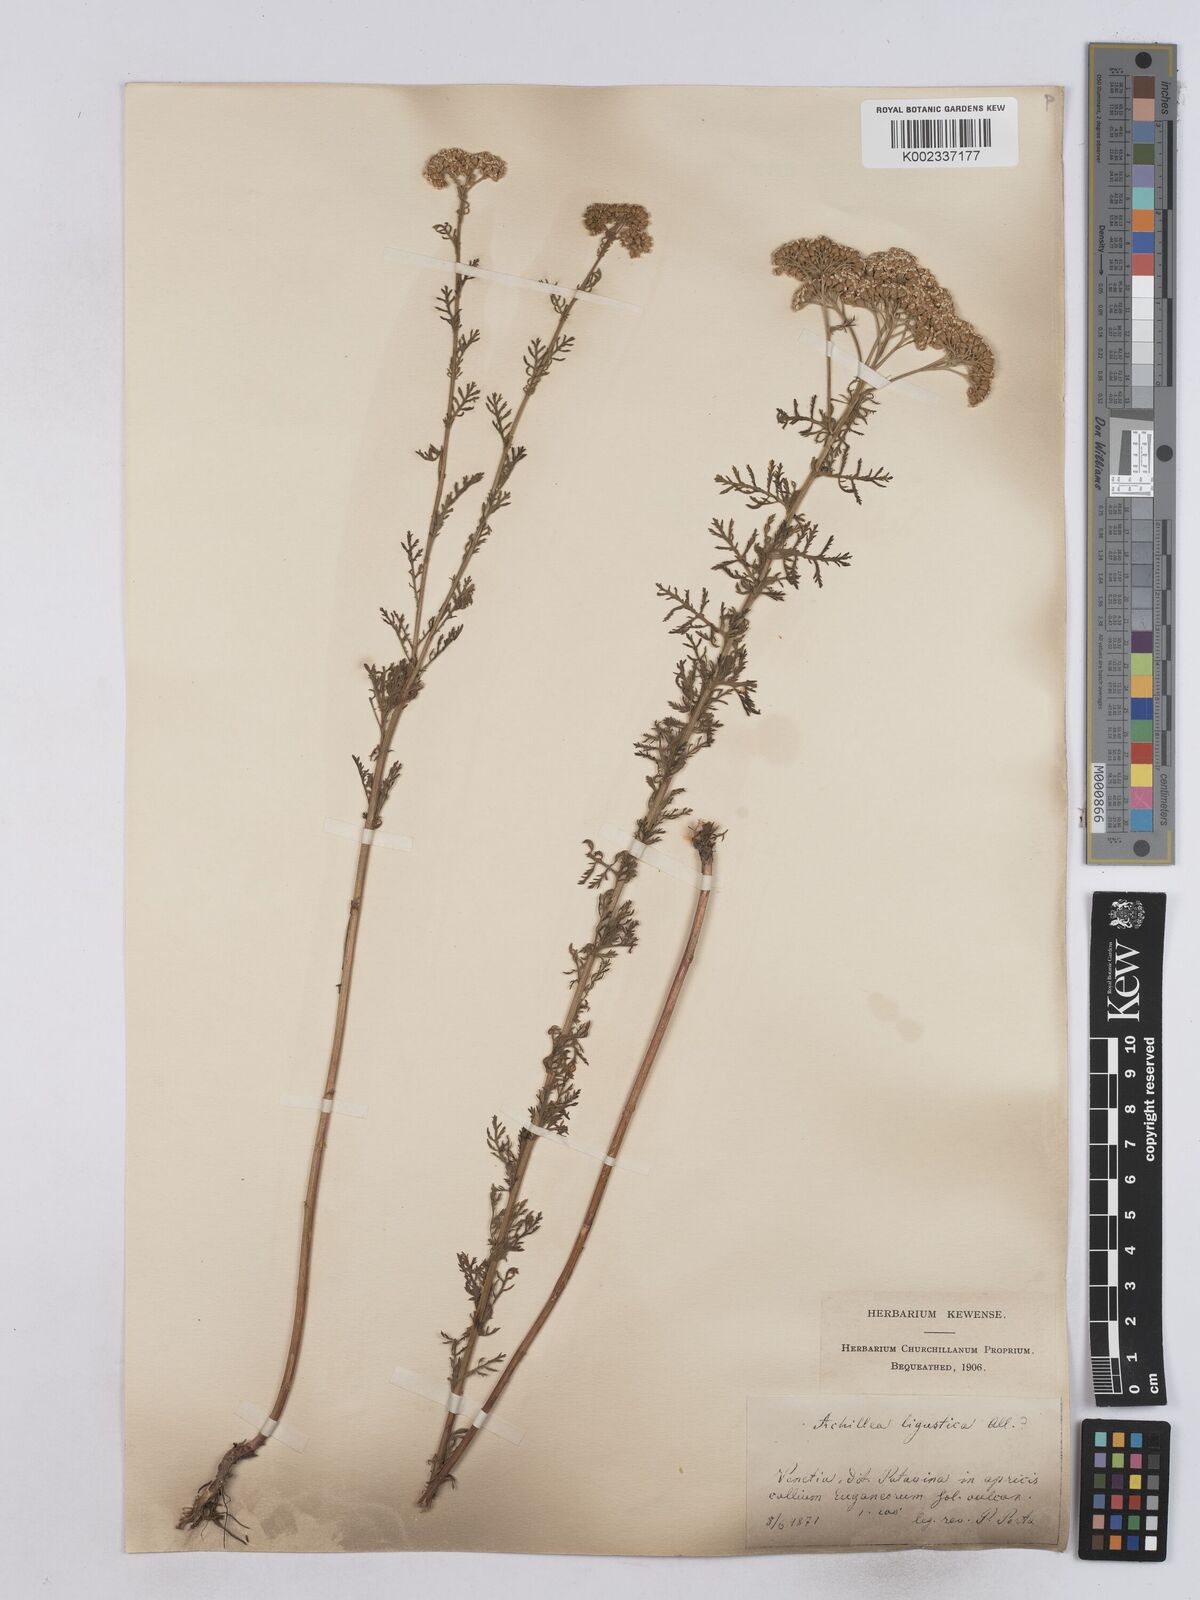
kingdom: Plantae
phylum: Tracheophyta
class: Magnoliopsida
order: Asterales
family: Asteraceae
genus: Achillea
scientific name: Achillea ligustica
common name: Southern yarrow
